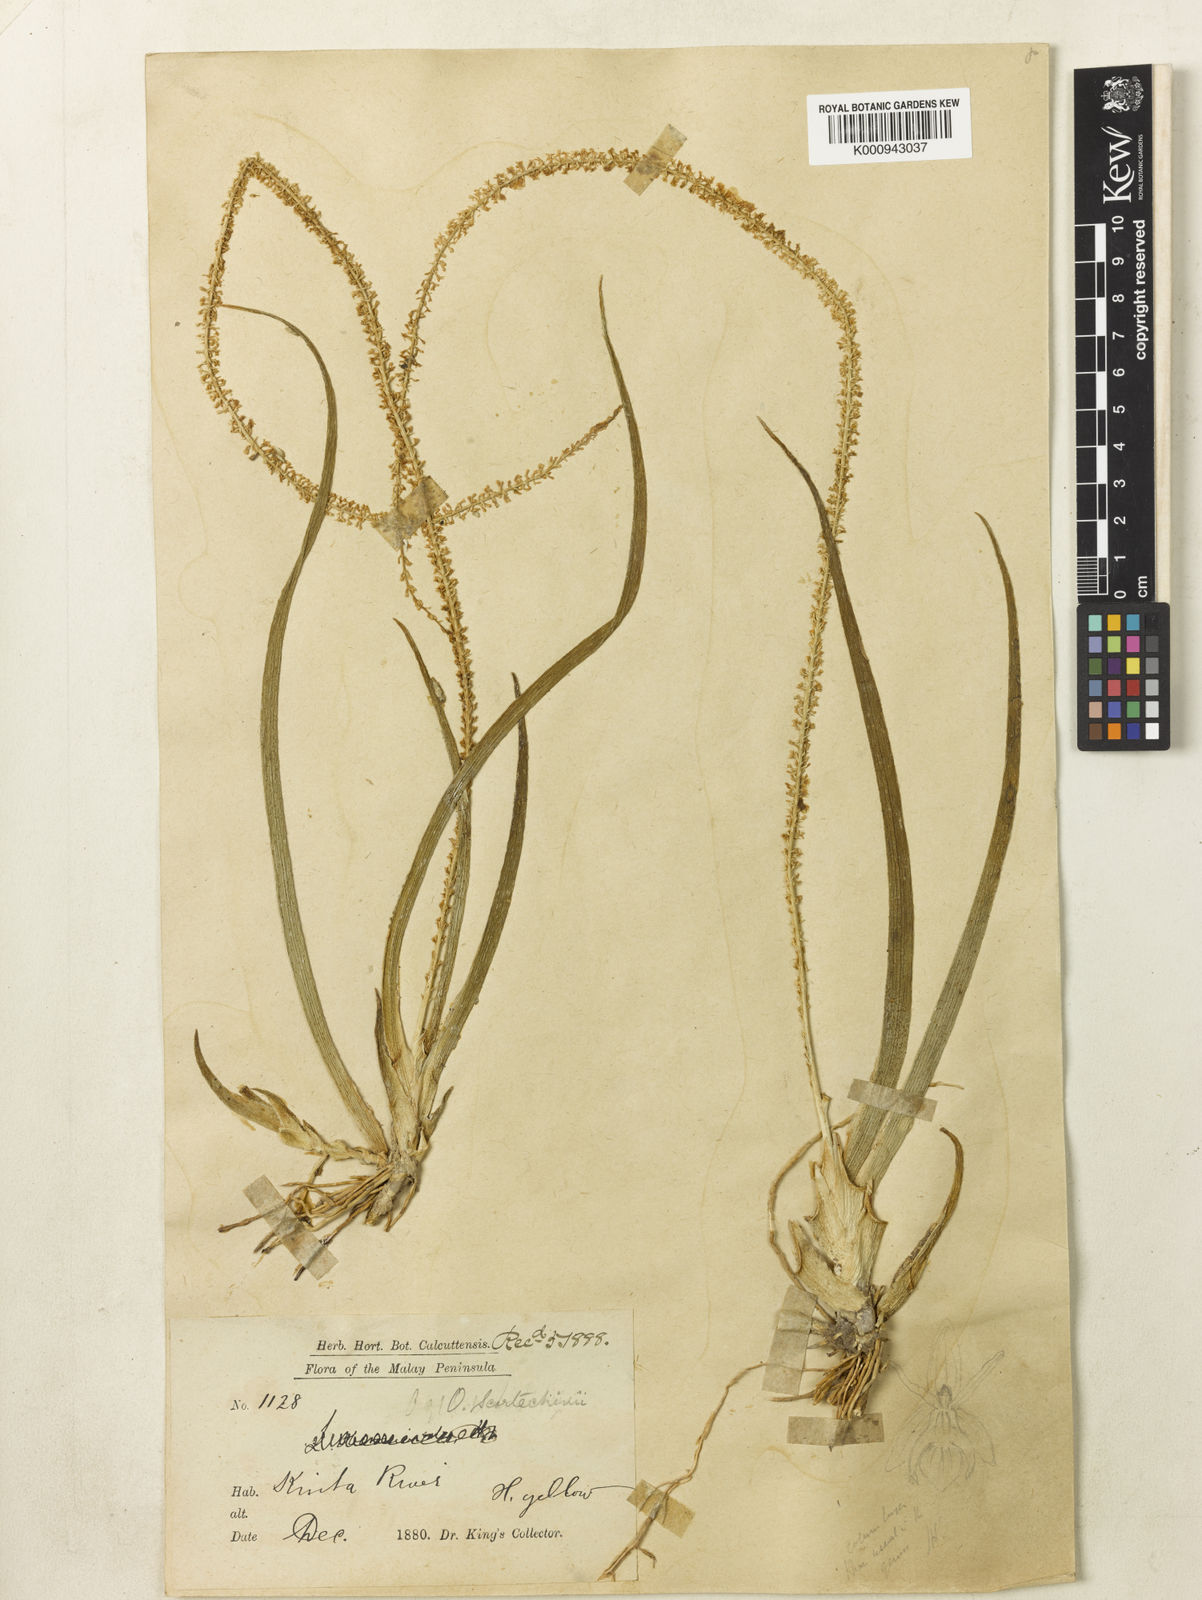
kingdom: Plantae
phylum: Tracheophyta
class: Liliopsida
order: Asparagales
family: Orchidaceae
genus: Hippeophyllum
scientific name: Hippeophyllum scortechinii
